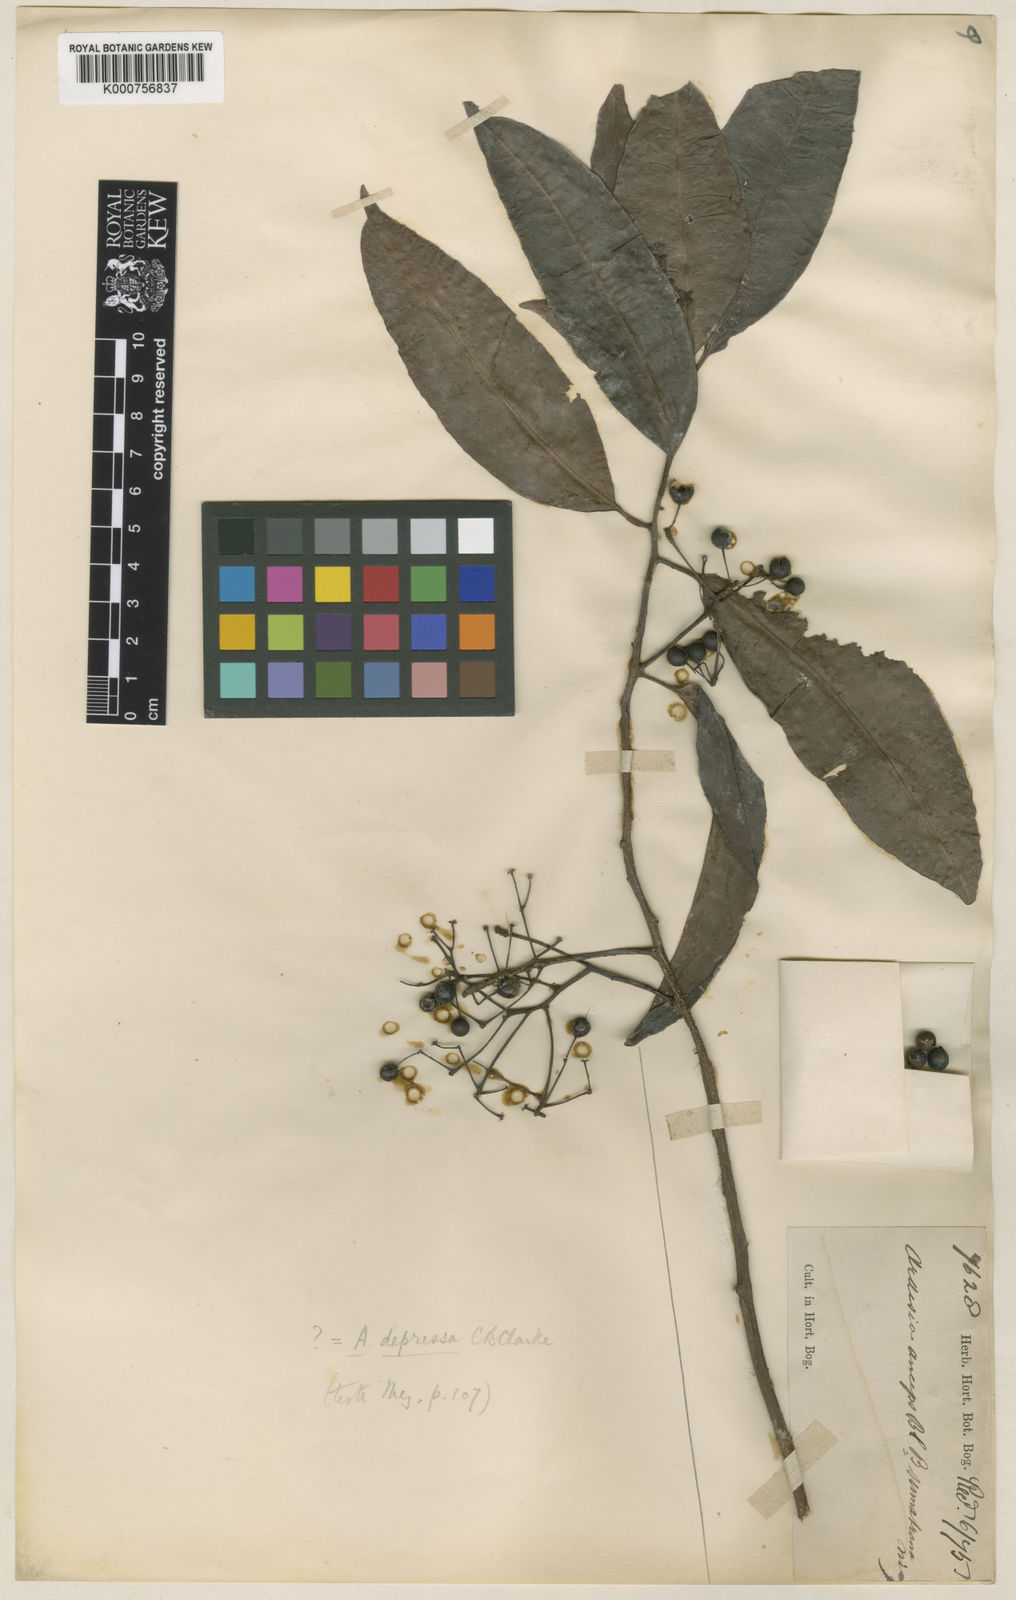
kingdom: Plantae
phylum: Tracheophyta
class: Magnoliopsida
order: Ericales
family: Primulaceae
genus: Ardisia
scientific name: Ardisia floribunda
